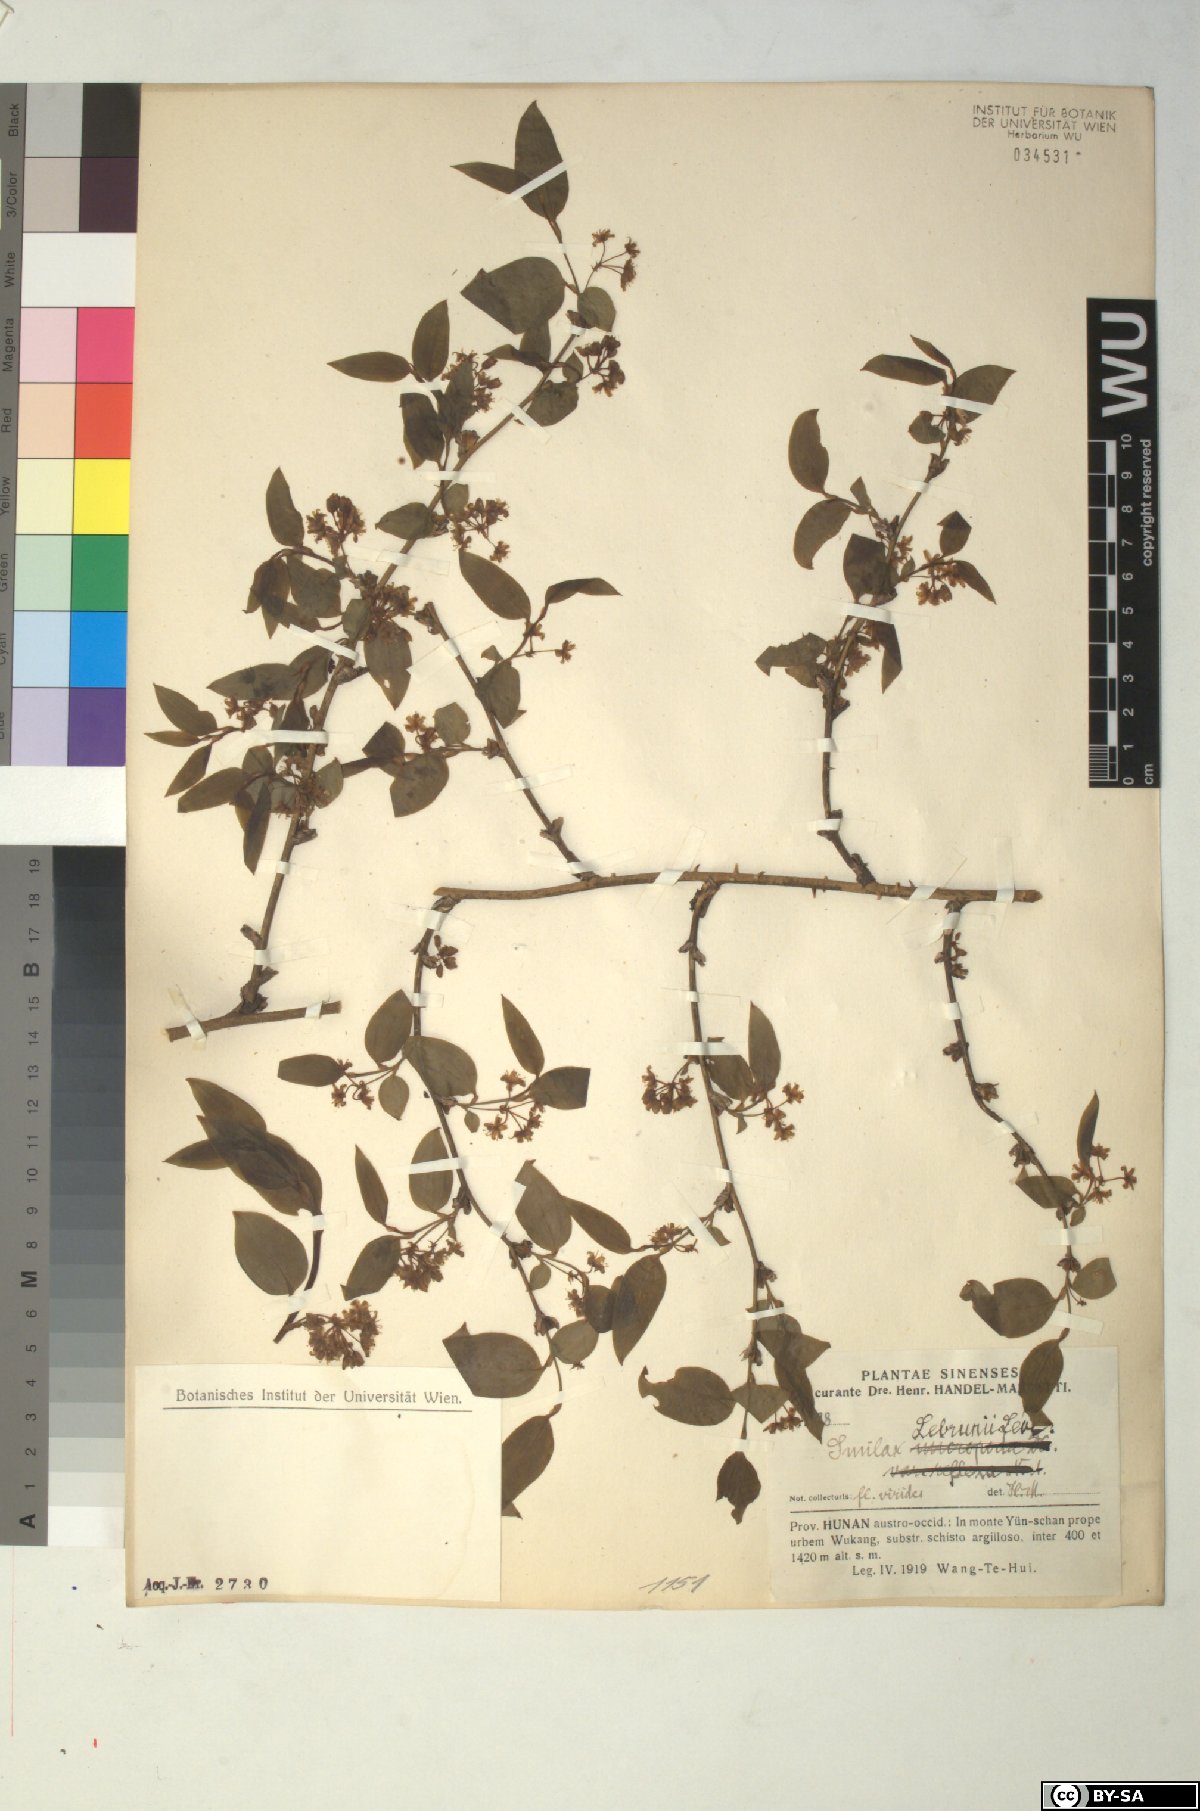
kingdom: Plantae
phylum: Tracheophyta
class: Liliopsida
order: Liliales
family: Smilacaceae
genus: Smilax
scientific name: Smilax lebrunii
